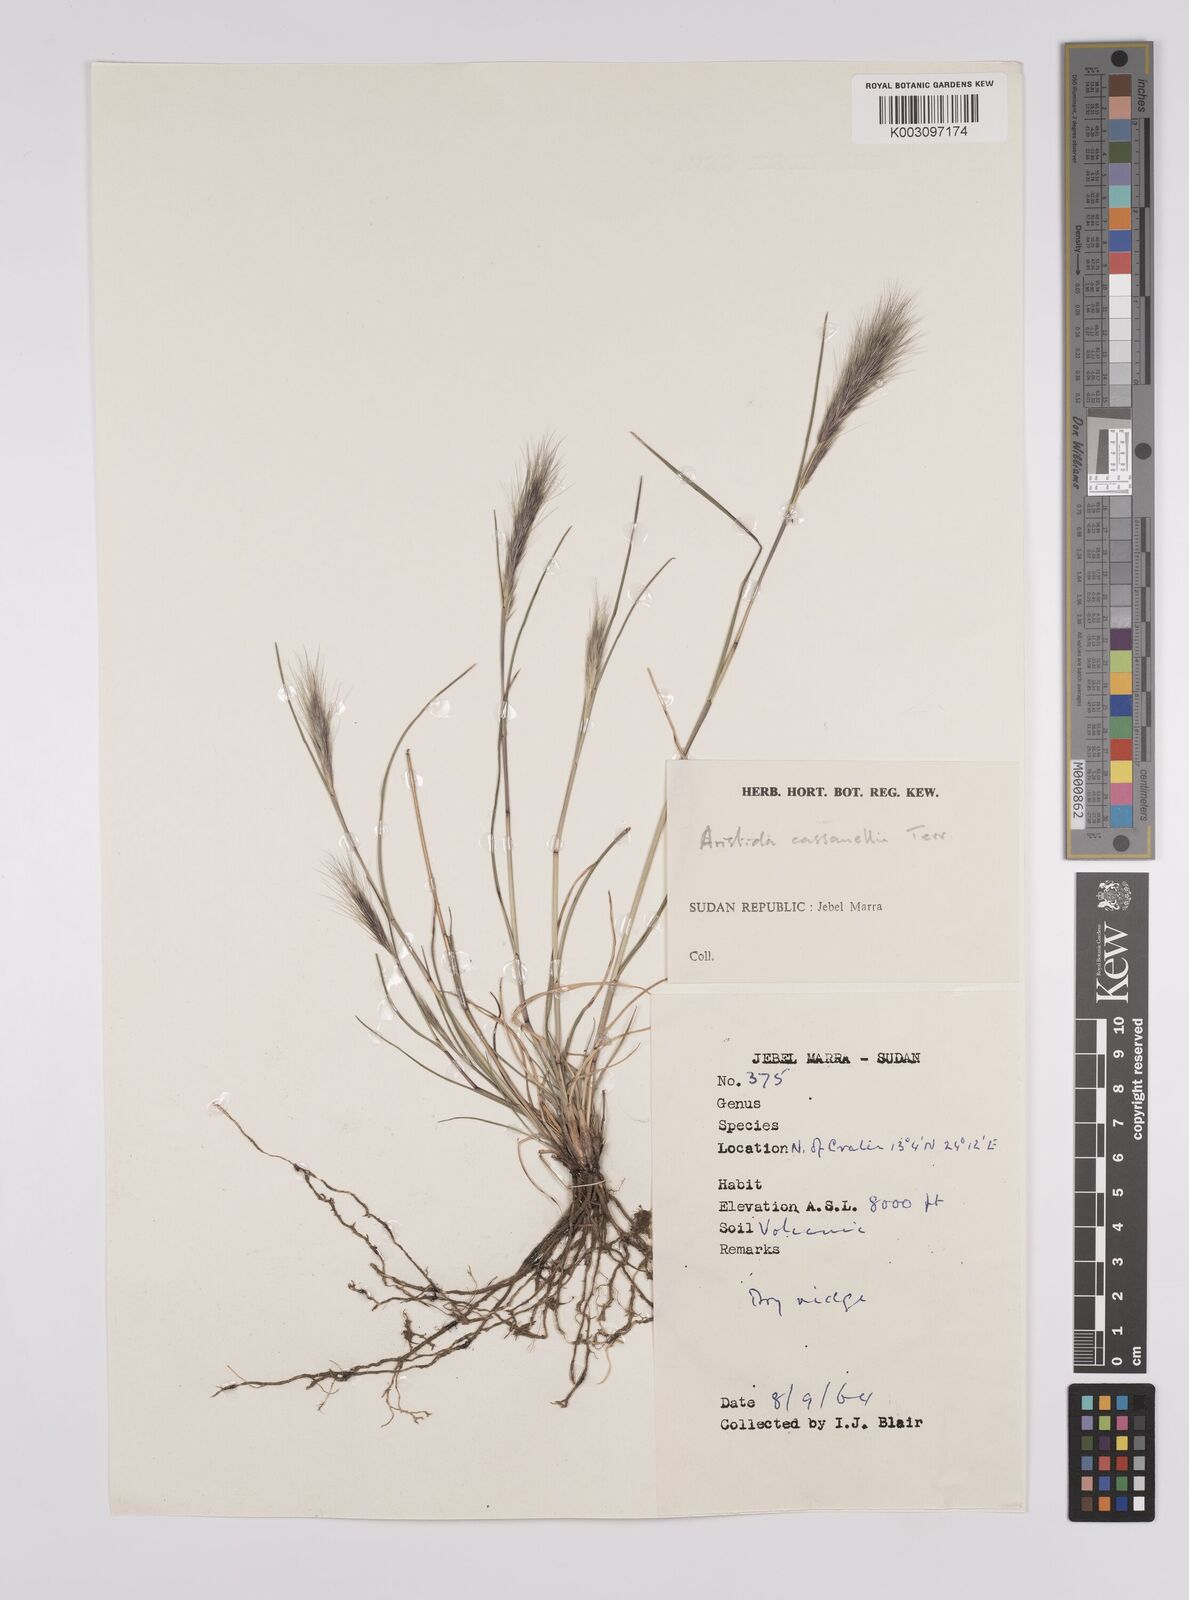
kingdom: Plantae
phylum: Tracheophyta
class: Liliopsida
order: Poales
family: Poaceae
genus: Aristida
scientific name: Aristida congesta
